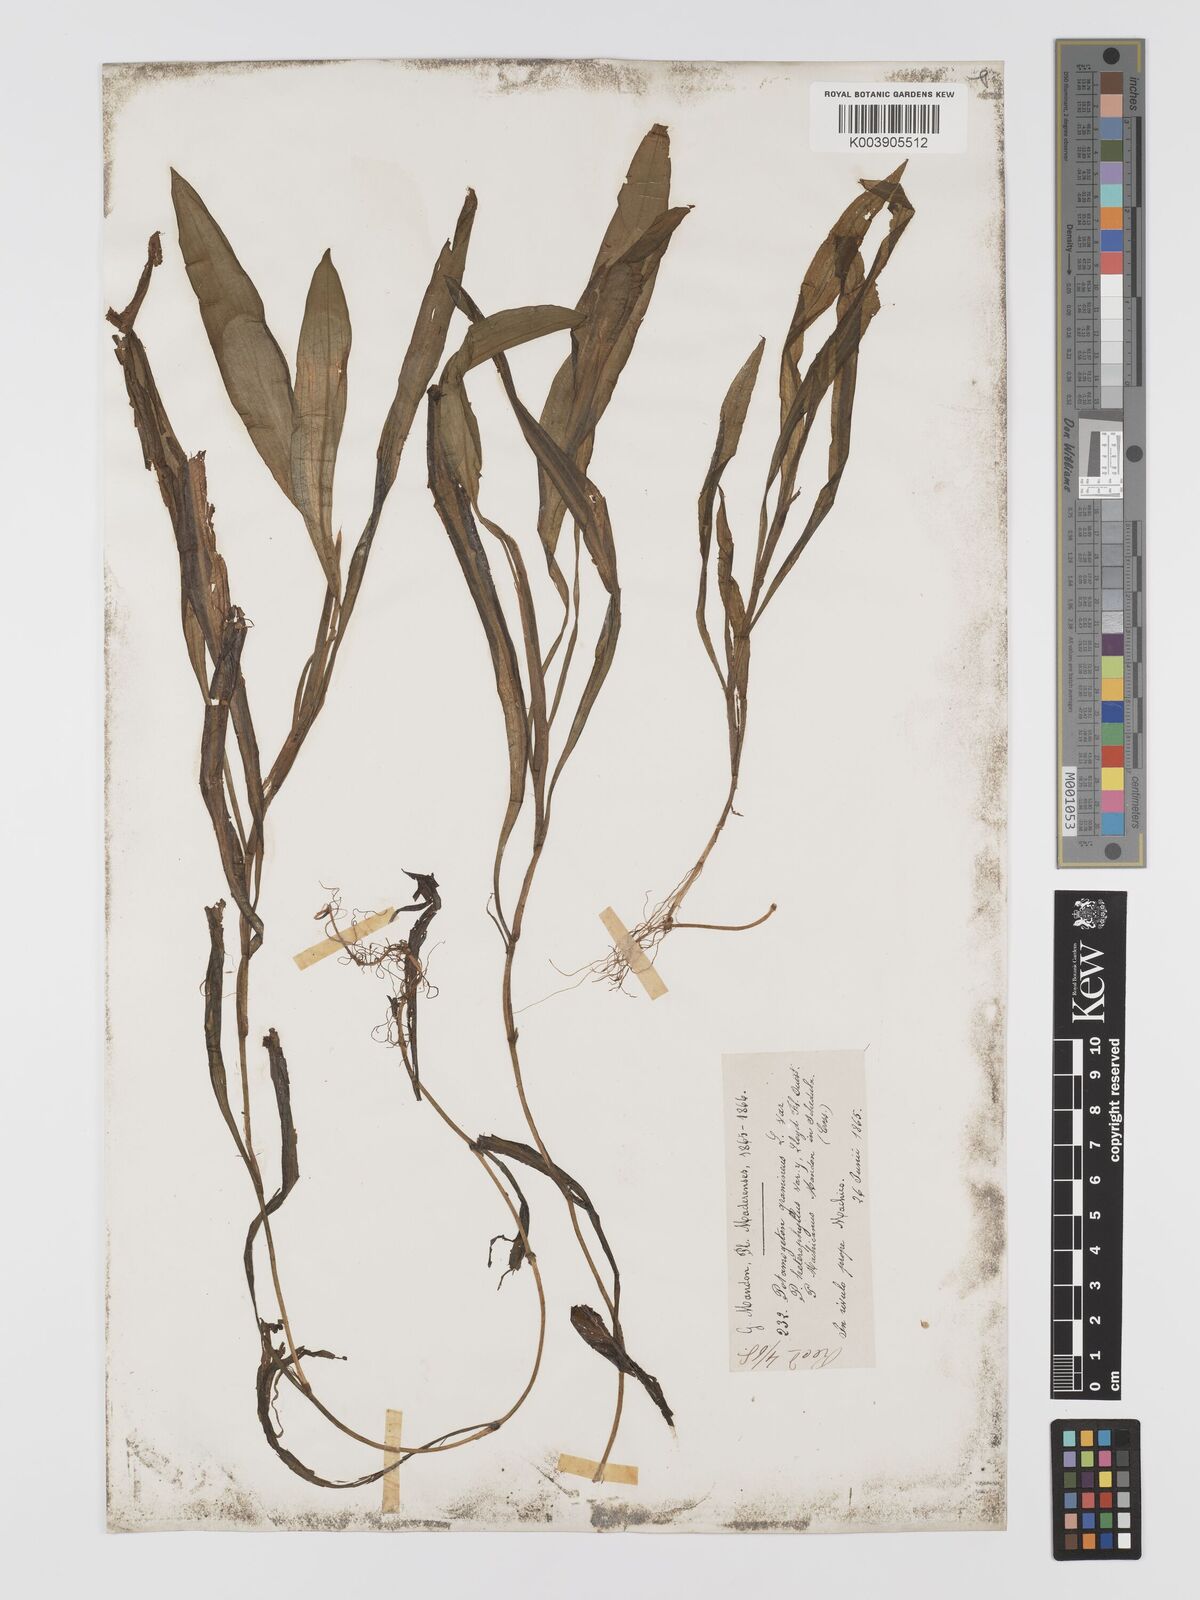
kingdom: Plantae
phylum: Tracheophyta
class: Liliopsida
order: Alismatales
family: Potamogetonaceae
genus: Potamogeton
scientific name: Potamogeton nodosus
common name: Loddon pondweed
